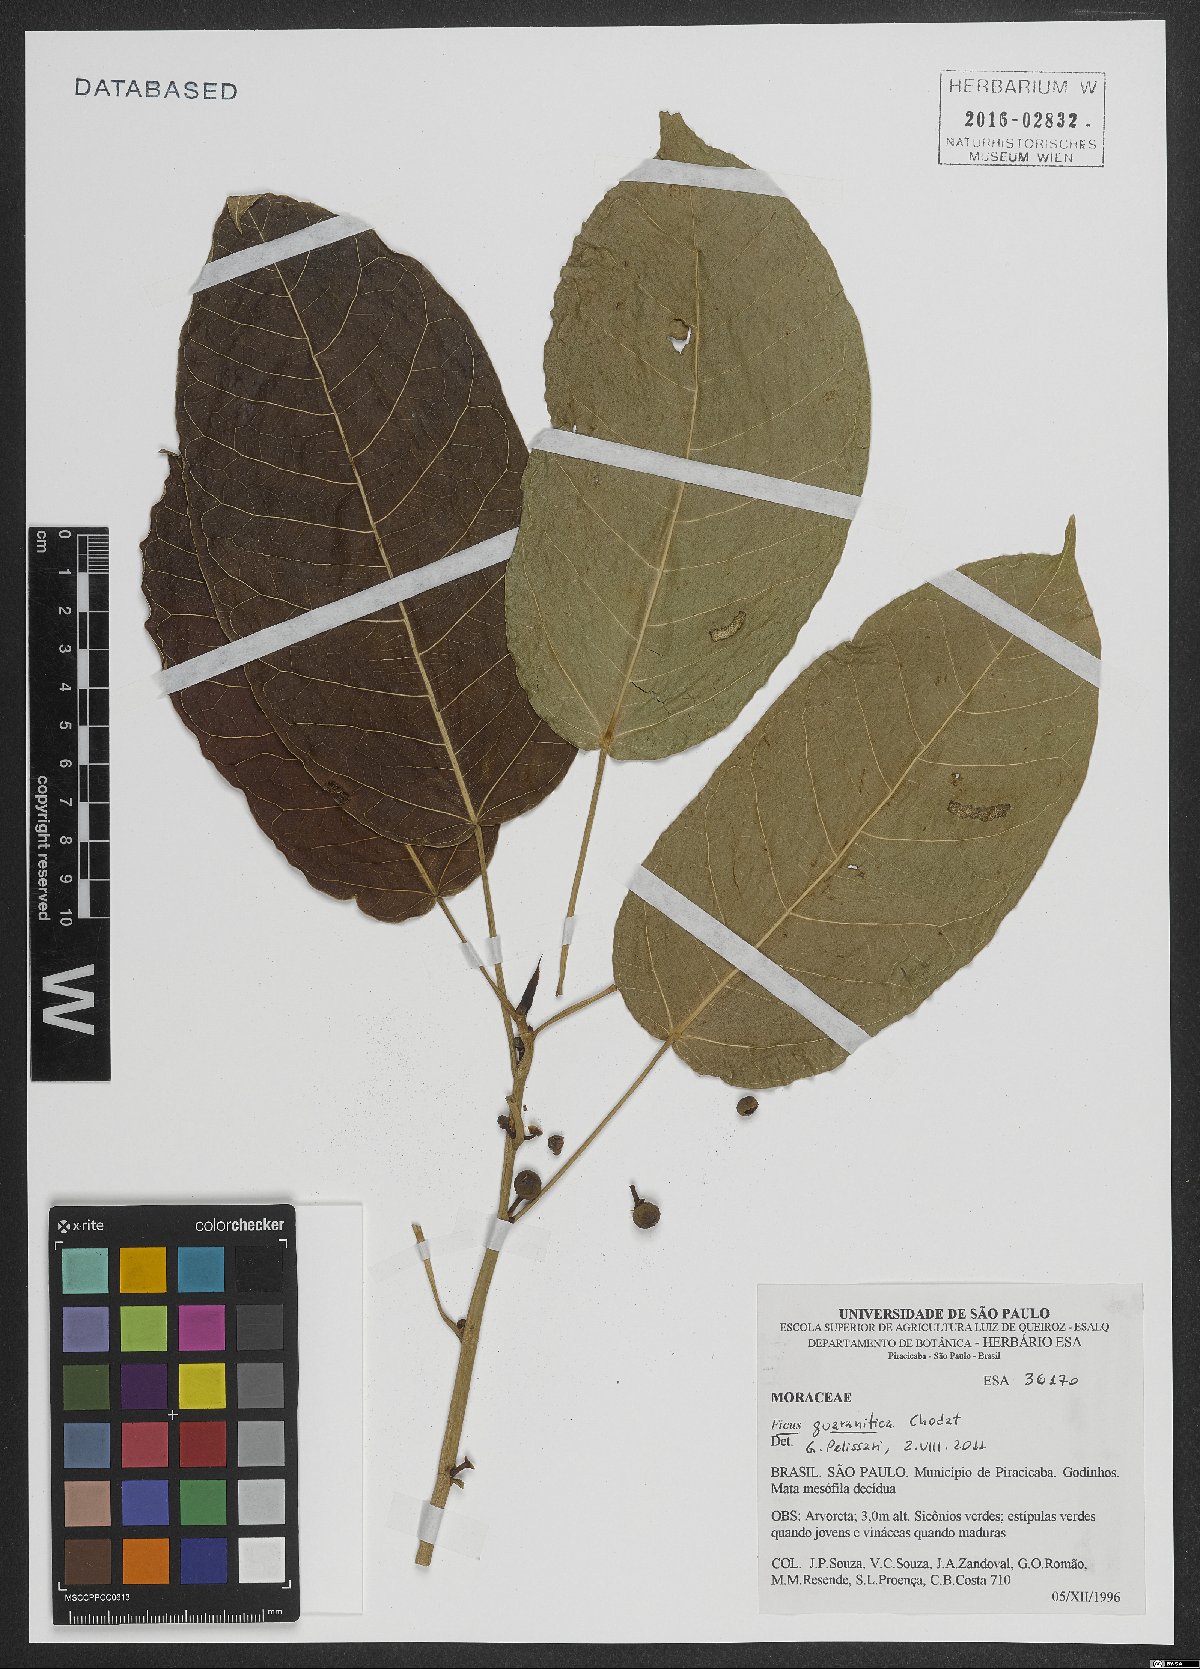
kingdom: Plantae
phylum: Tracheophyta
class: Magnoliopsida
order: Rosales
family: Moraceae
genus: Ficus
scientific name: Ficus guaranitica
